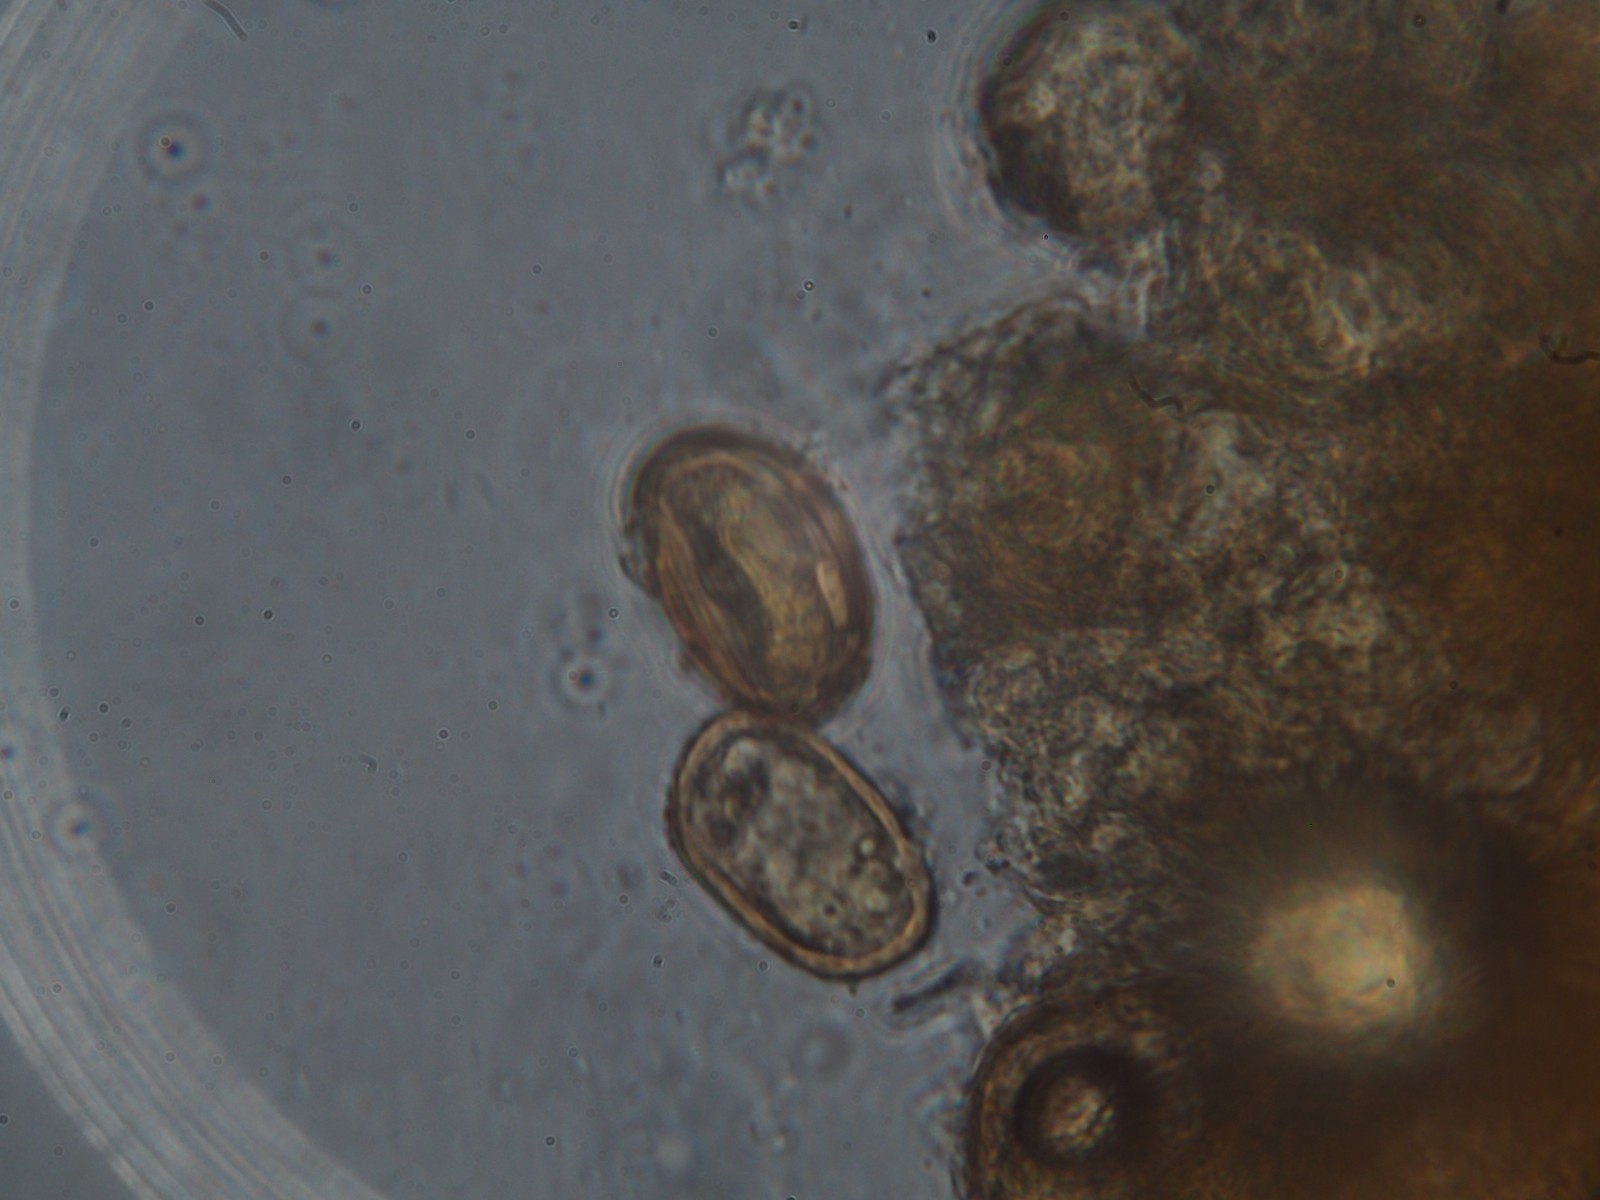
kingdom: Fungi
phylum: Basidiomycota
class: Pucciniomycetes
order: Pucciniales
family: Pucciniaceae
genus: Puccinia
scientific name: Puccinia obscura
